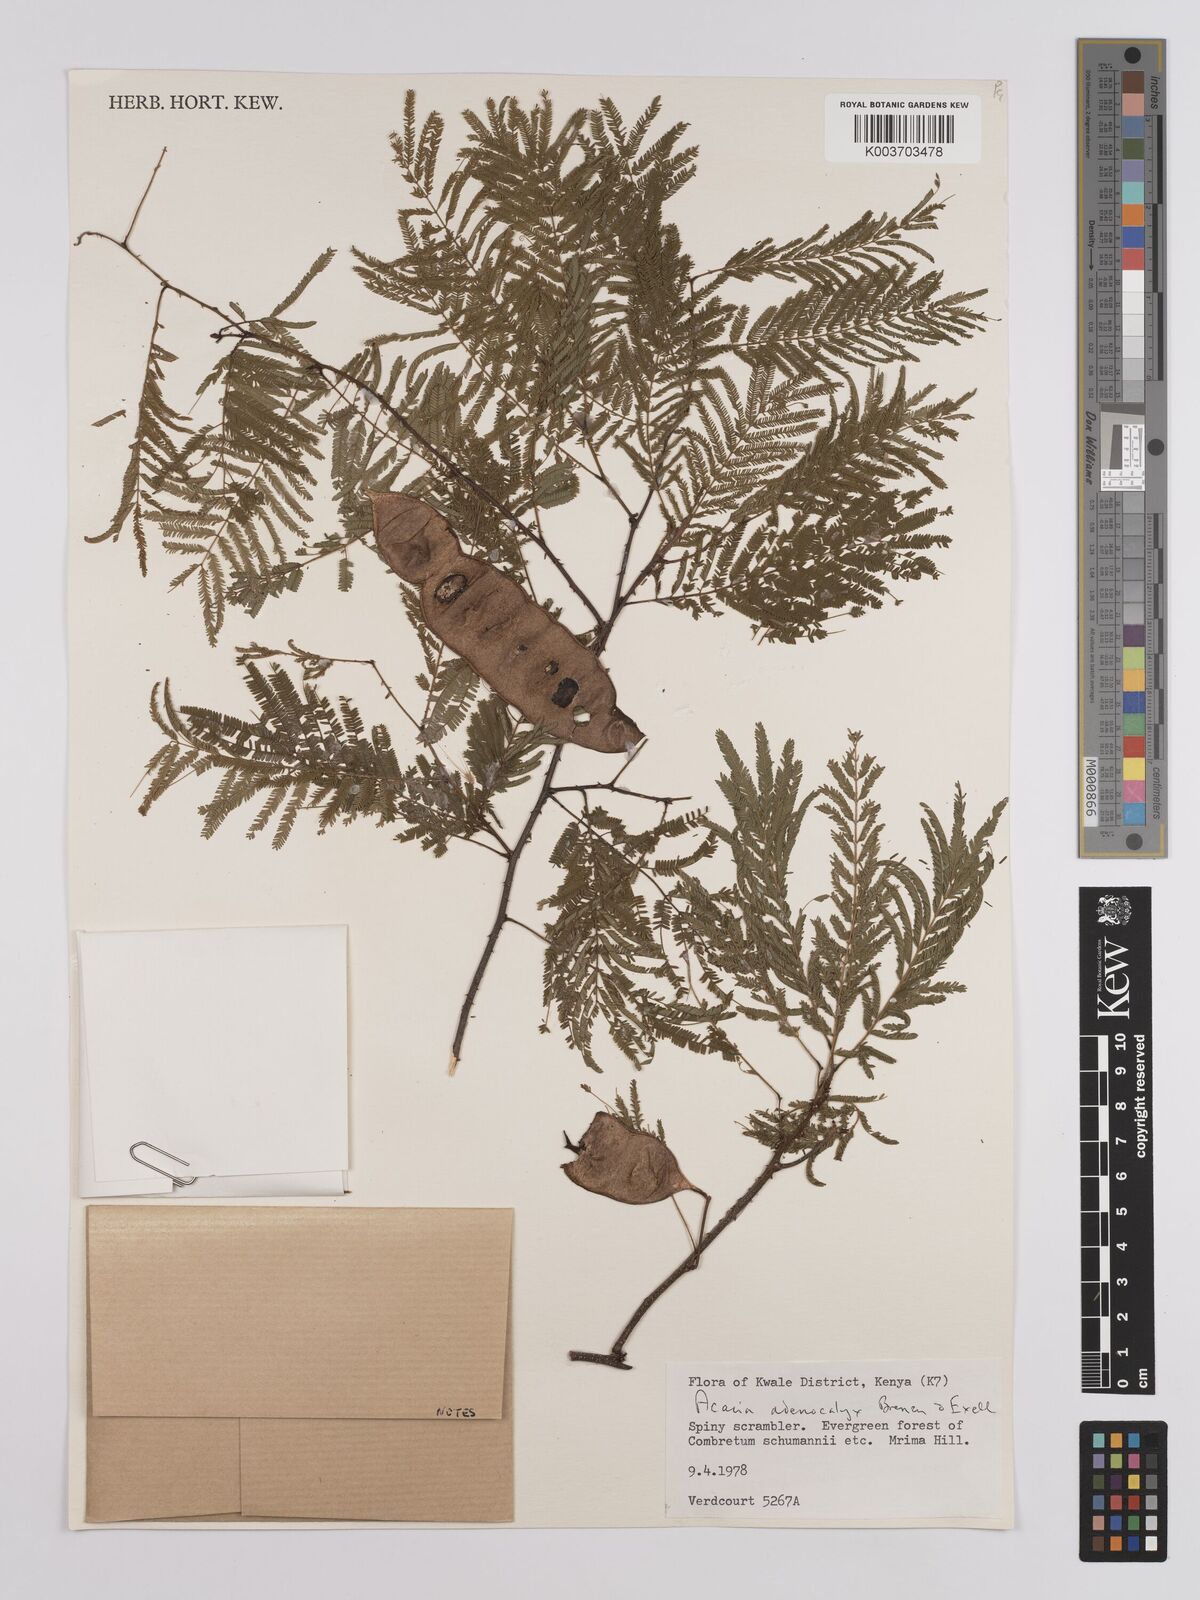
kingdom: Plantae
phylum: Tracheophyta
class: Magnoliopsida
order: Fabales
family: Fabaceae
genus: Senegalia
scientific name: Senegalia adenocalyx
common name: Pfurura
